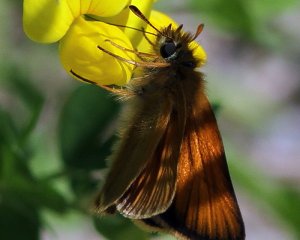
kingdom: Animalia
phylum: Arthropoda
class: Insecta
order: Lepidoptera
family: Hesperiidae
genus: Thymelicus
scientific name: Thymelicus lineola
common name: European Skipper
